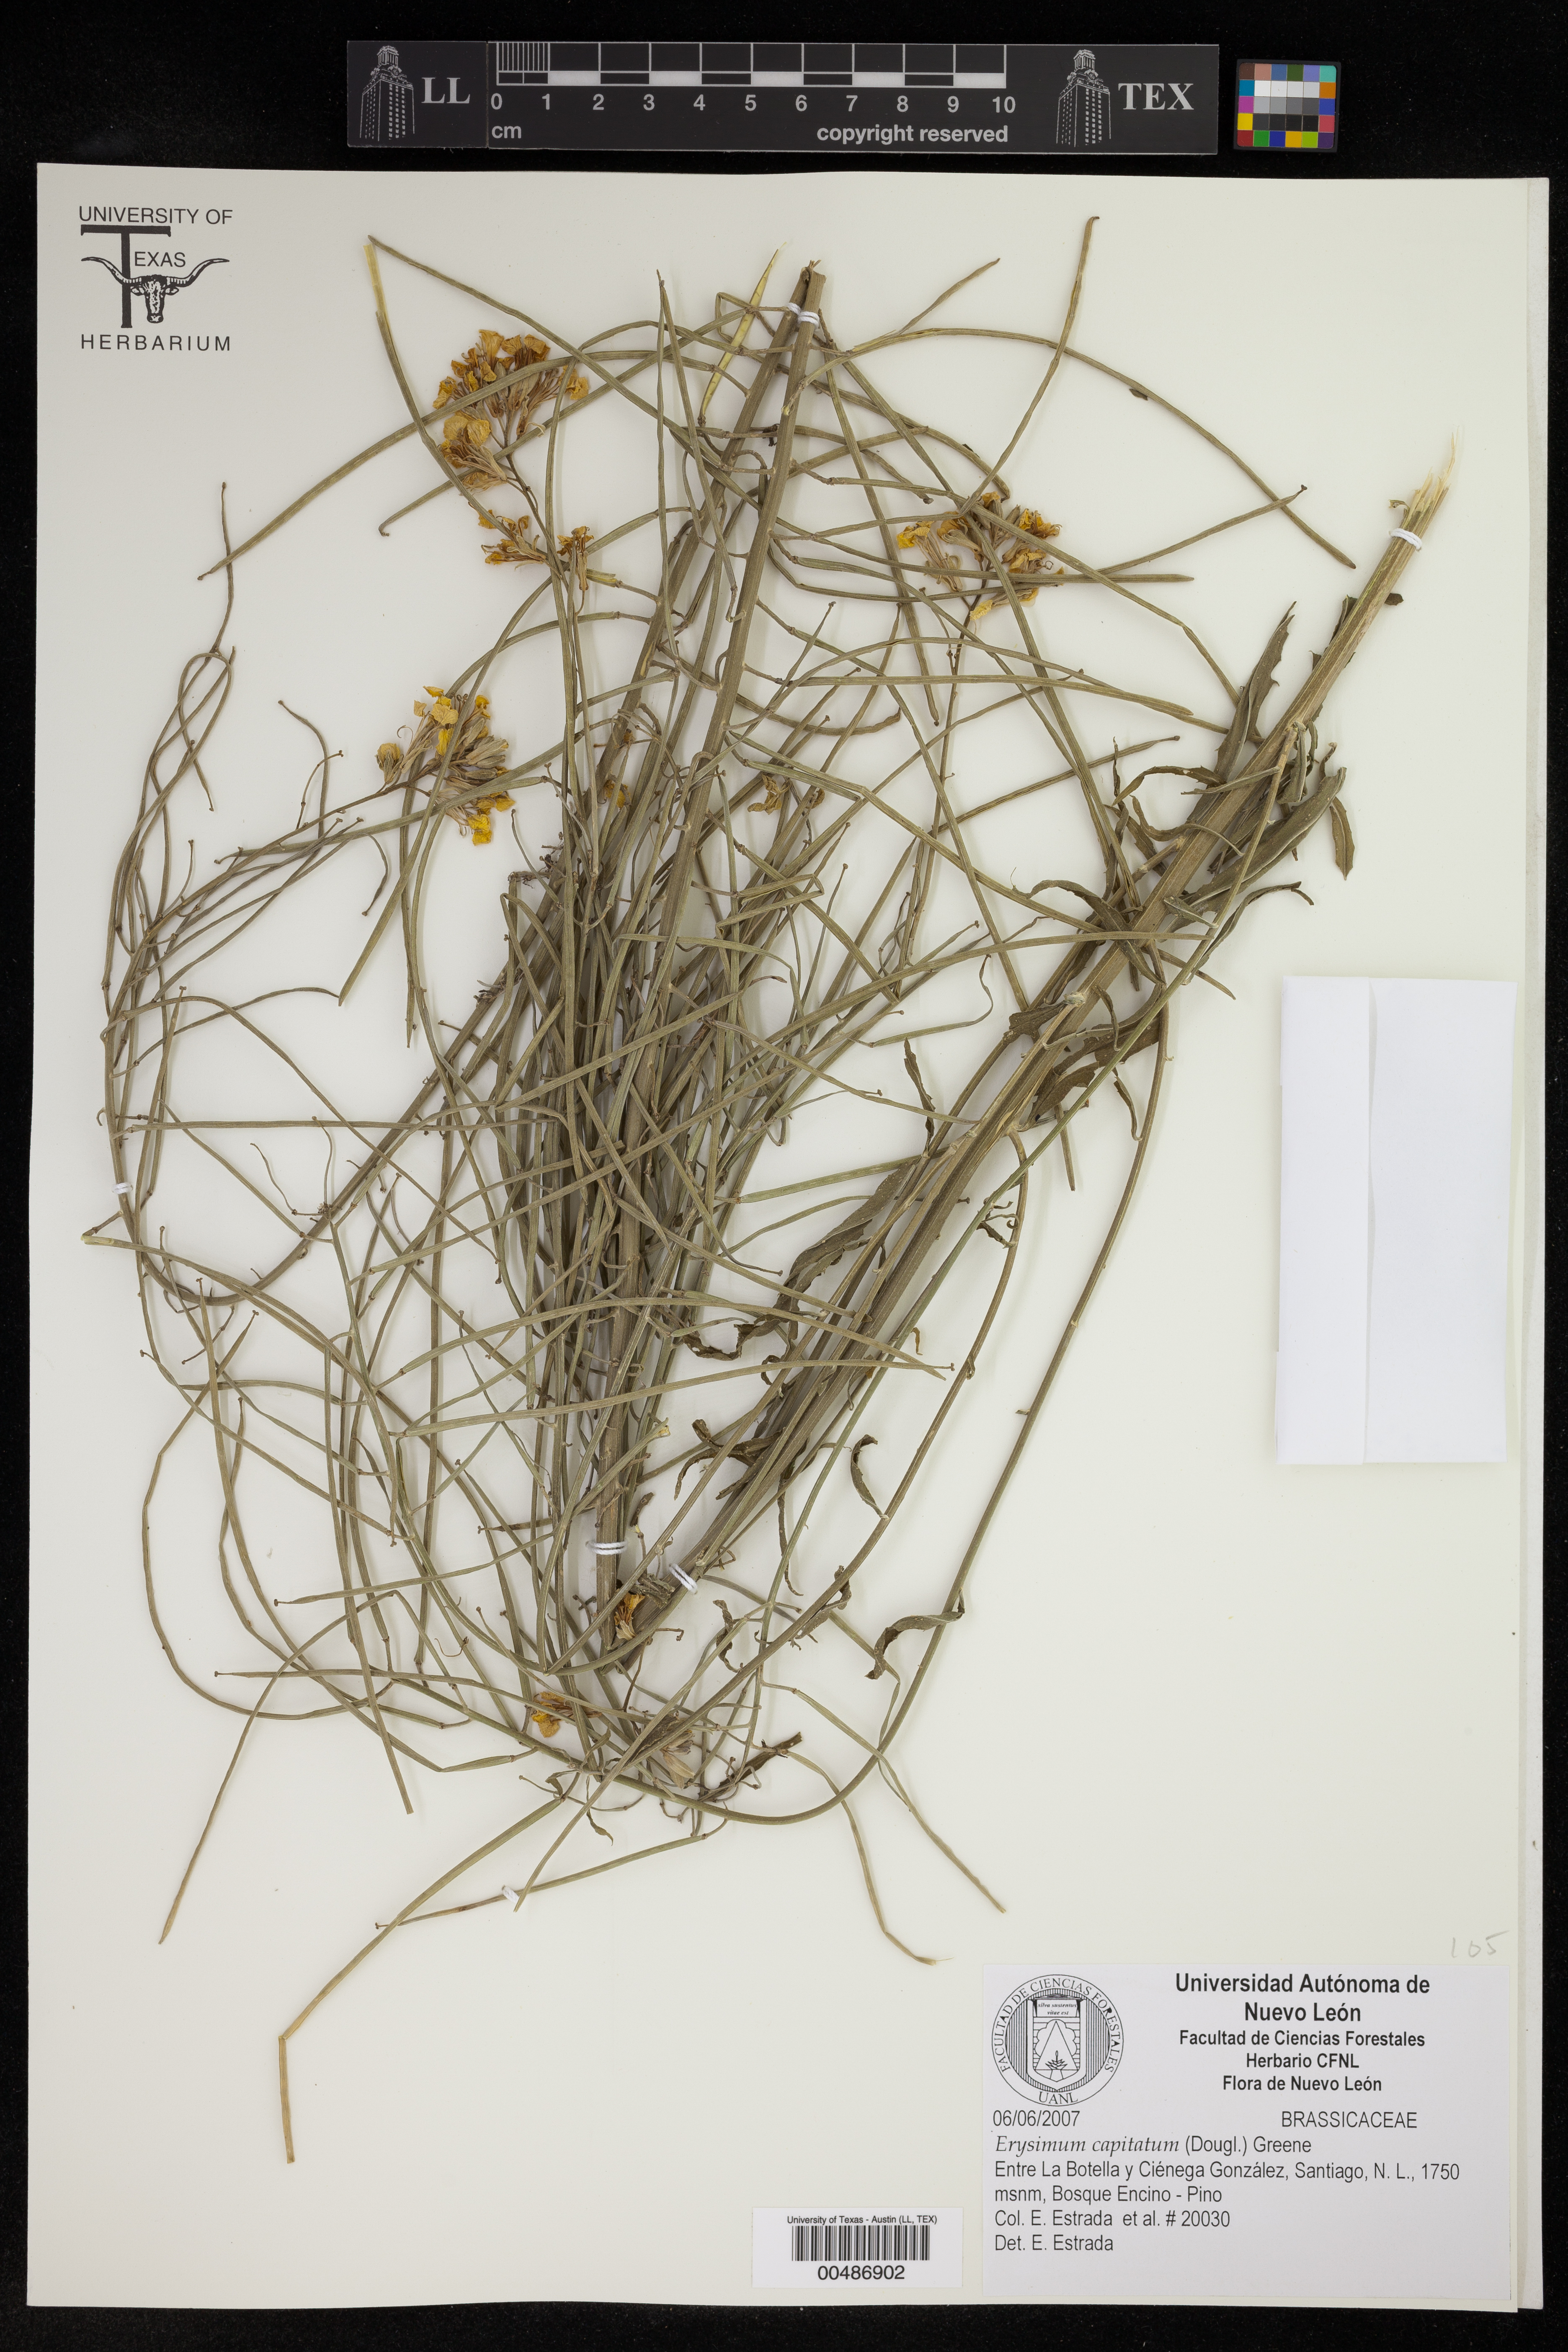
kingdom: Plantae
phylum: Tracheophyta
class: Magnoliopsida
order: Brassicales
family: Brassicaceae
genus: Erysimum
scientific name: Erysimum capitatum
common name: Western wallflower
